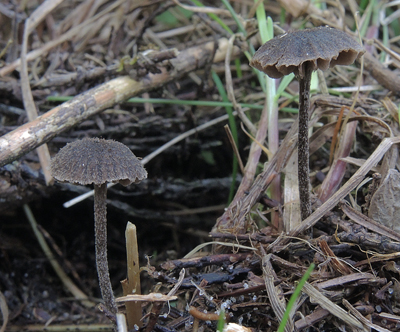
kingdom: Fungi
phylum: Basidiomycota
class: Agaricomycetes
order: Agaricales
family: Entolomataceae
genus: Entoloma
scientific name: Entoloma dysthaloides
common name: dyster rødblad
